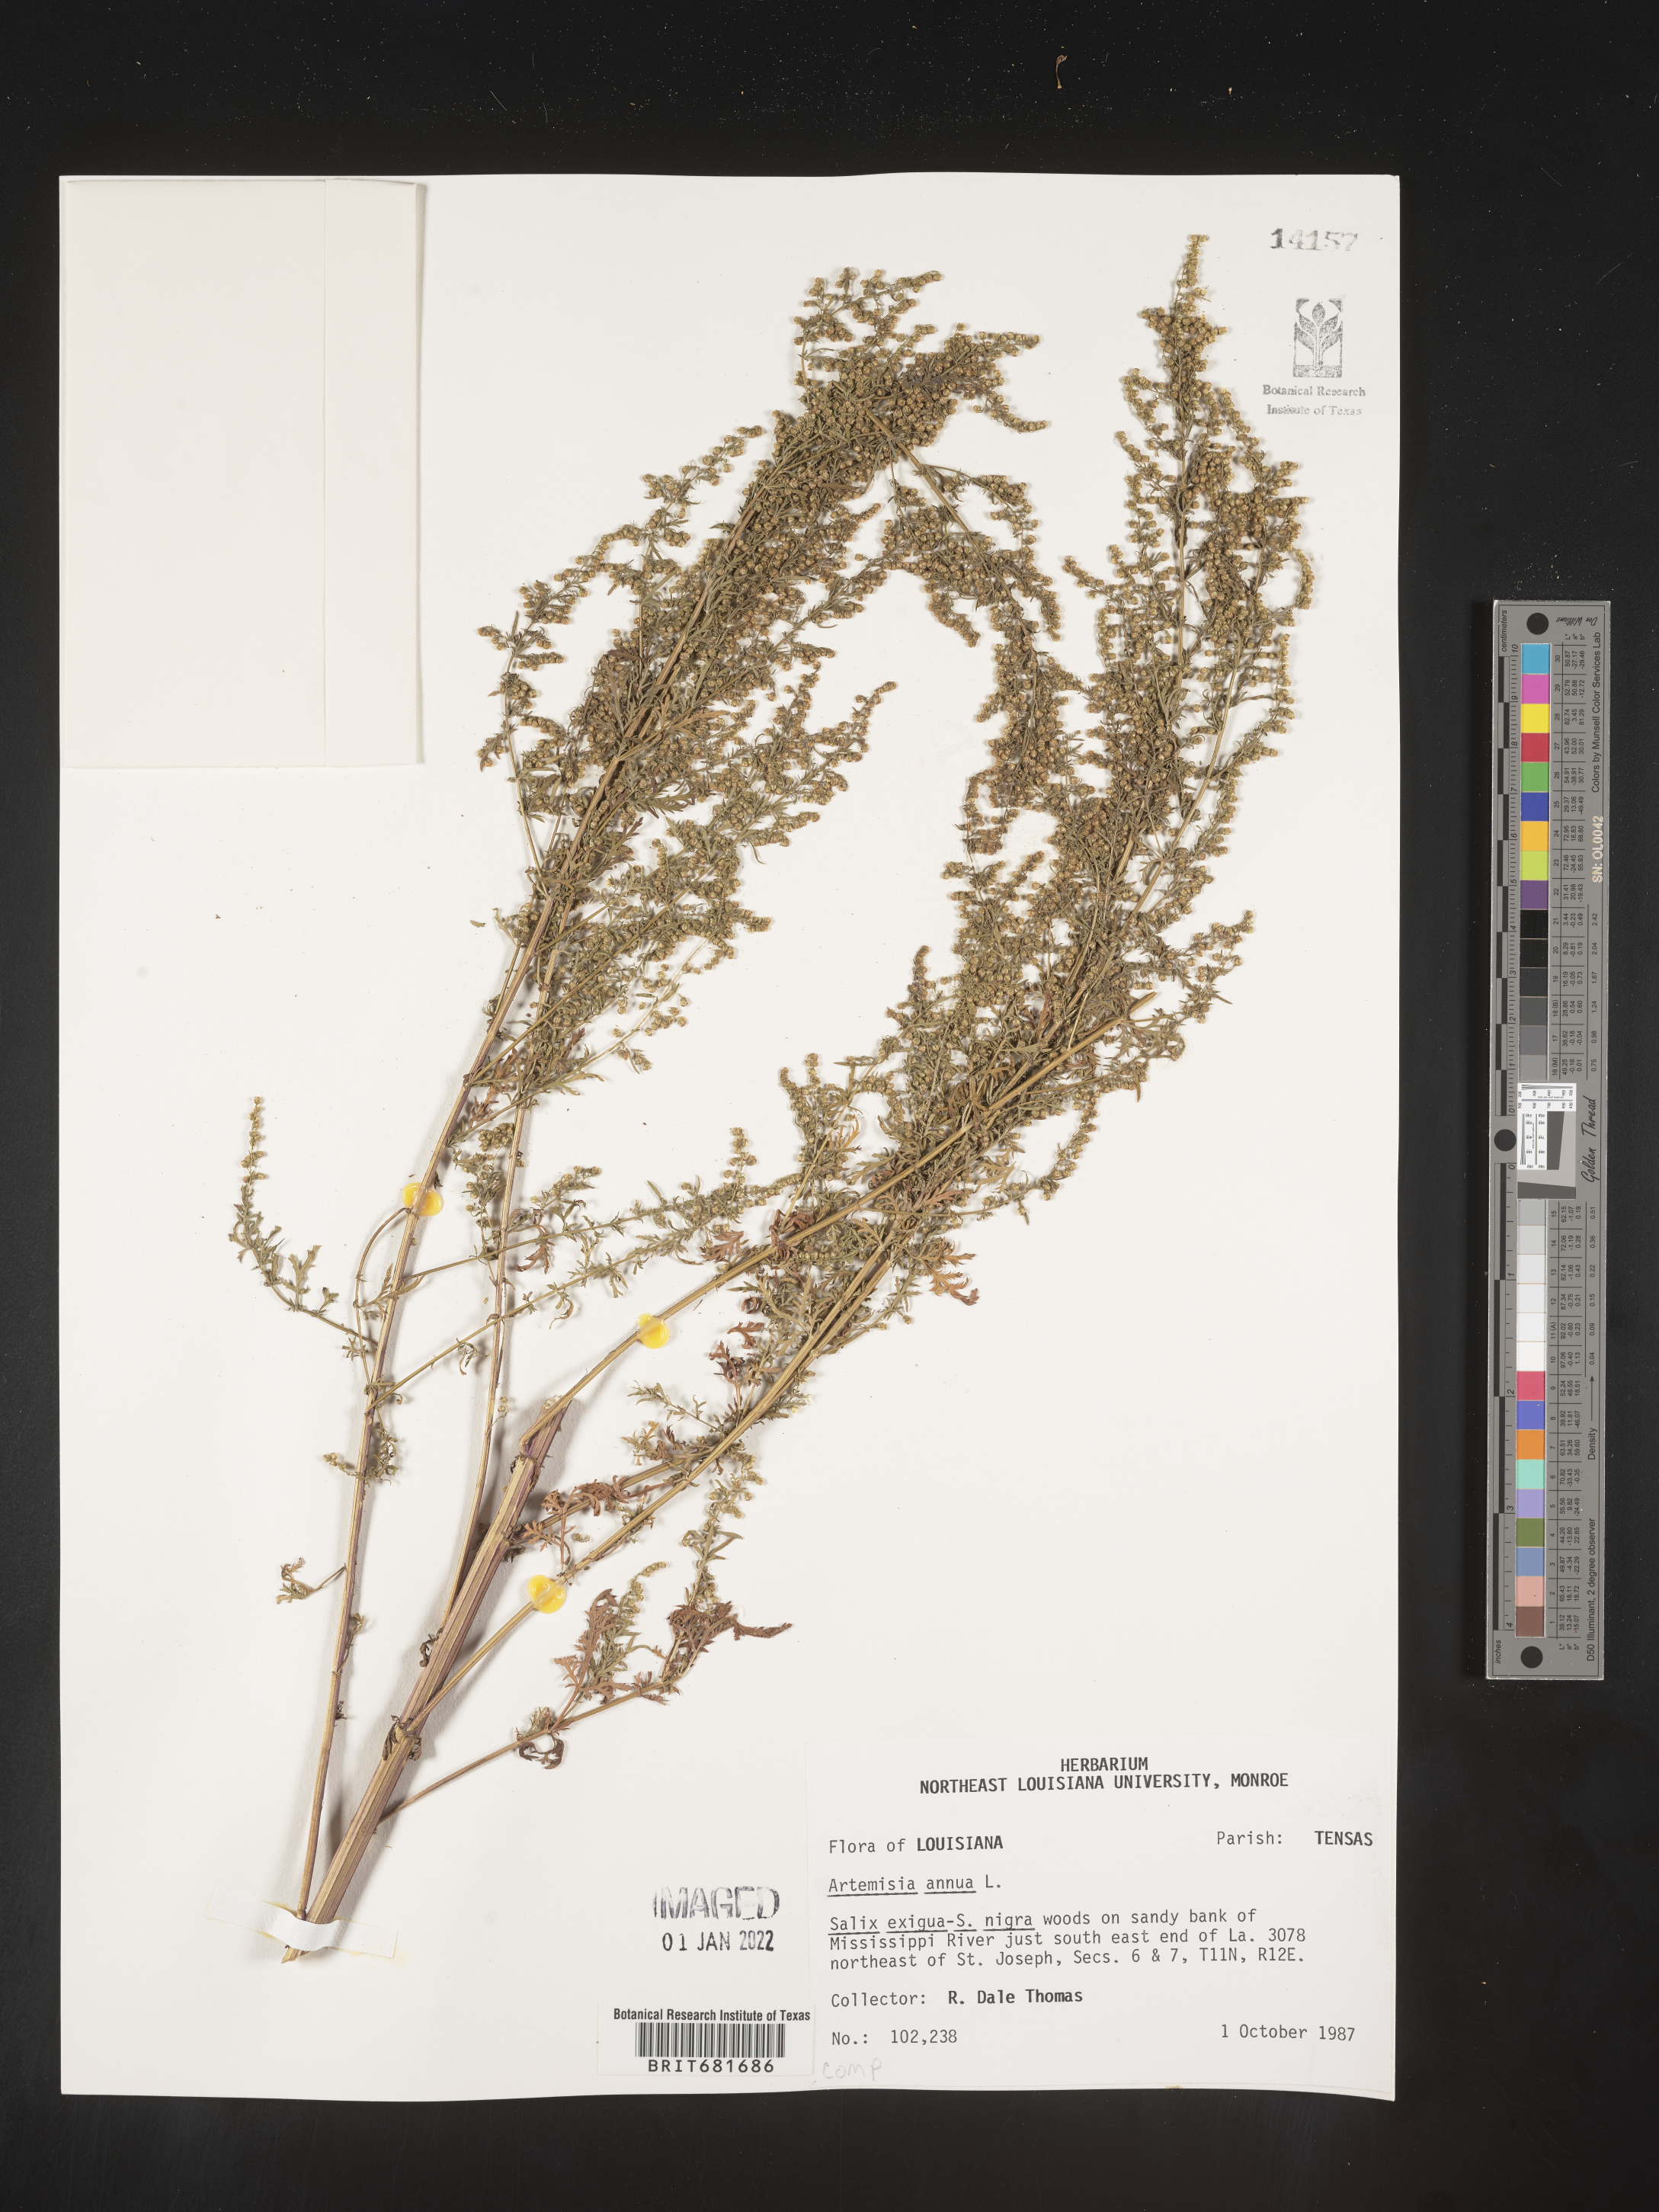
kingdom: Plantae
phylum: Tracheophyta
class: Magnoliopsida
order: Asterales
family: Asteraceae
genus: Artemisia
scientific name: Artemisia annua
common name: Sweet sagewort
